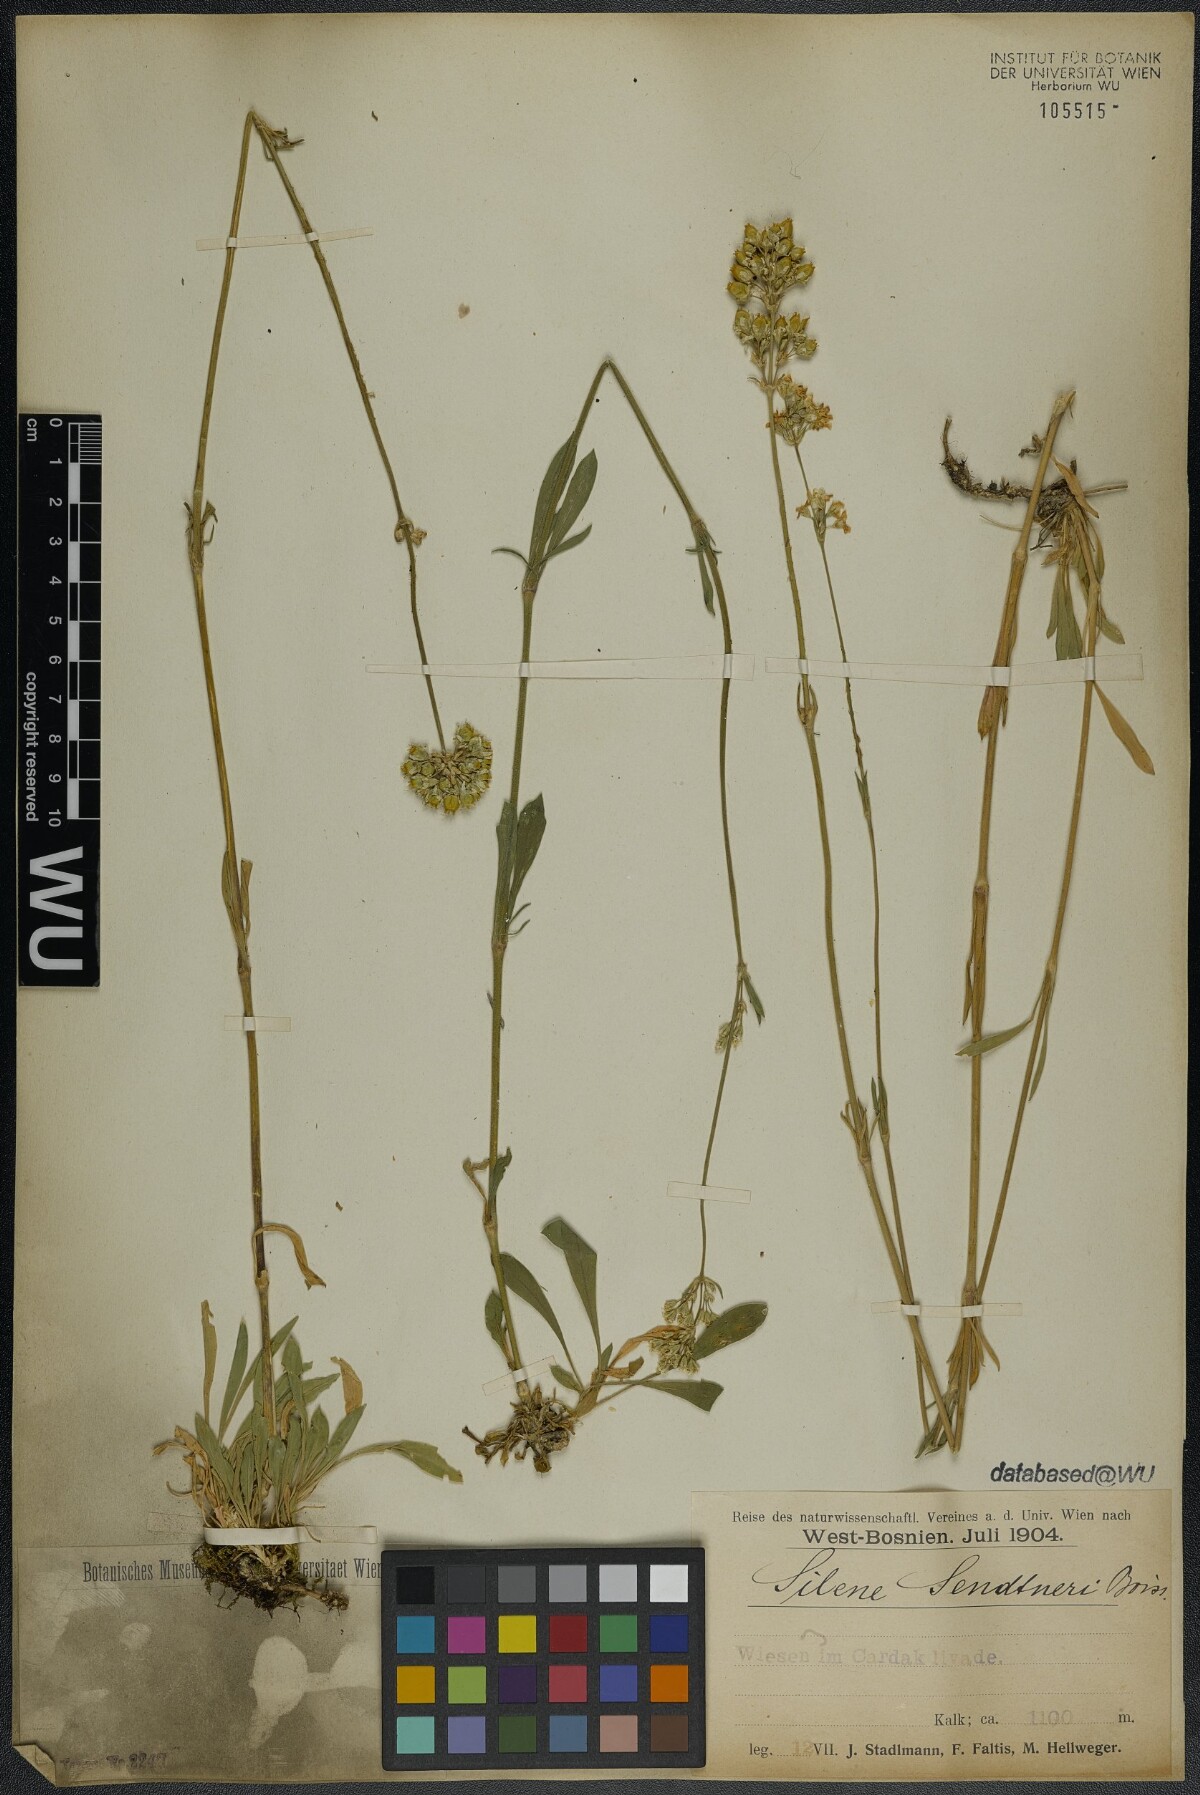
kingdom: Plantae
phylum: Tracheophyta
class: Magnoliopsida
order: Caryophyllales
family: Caryophyllaceae
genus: Silene
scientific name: Silene sendtneri
